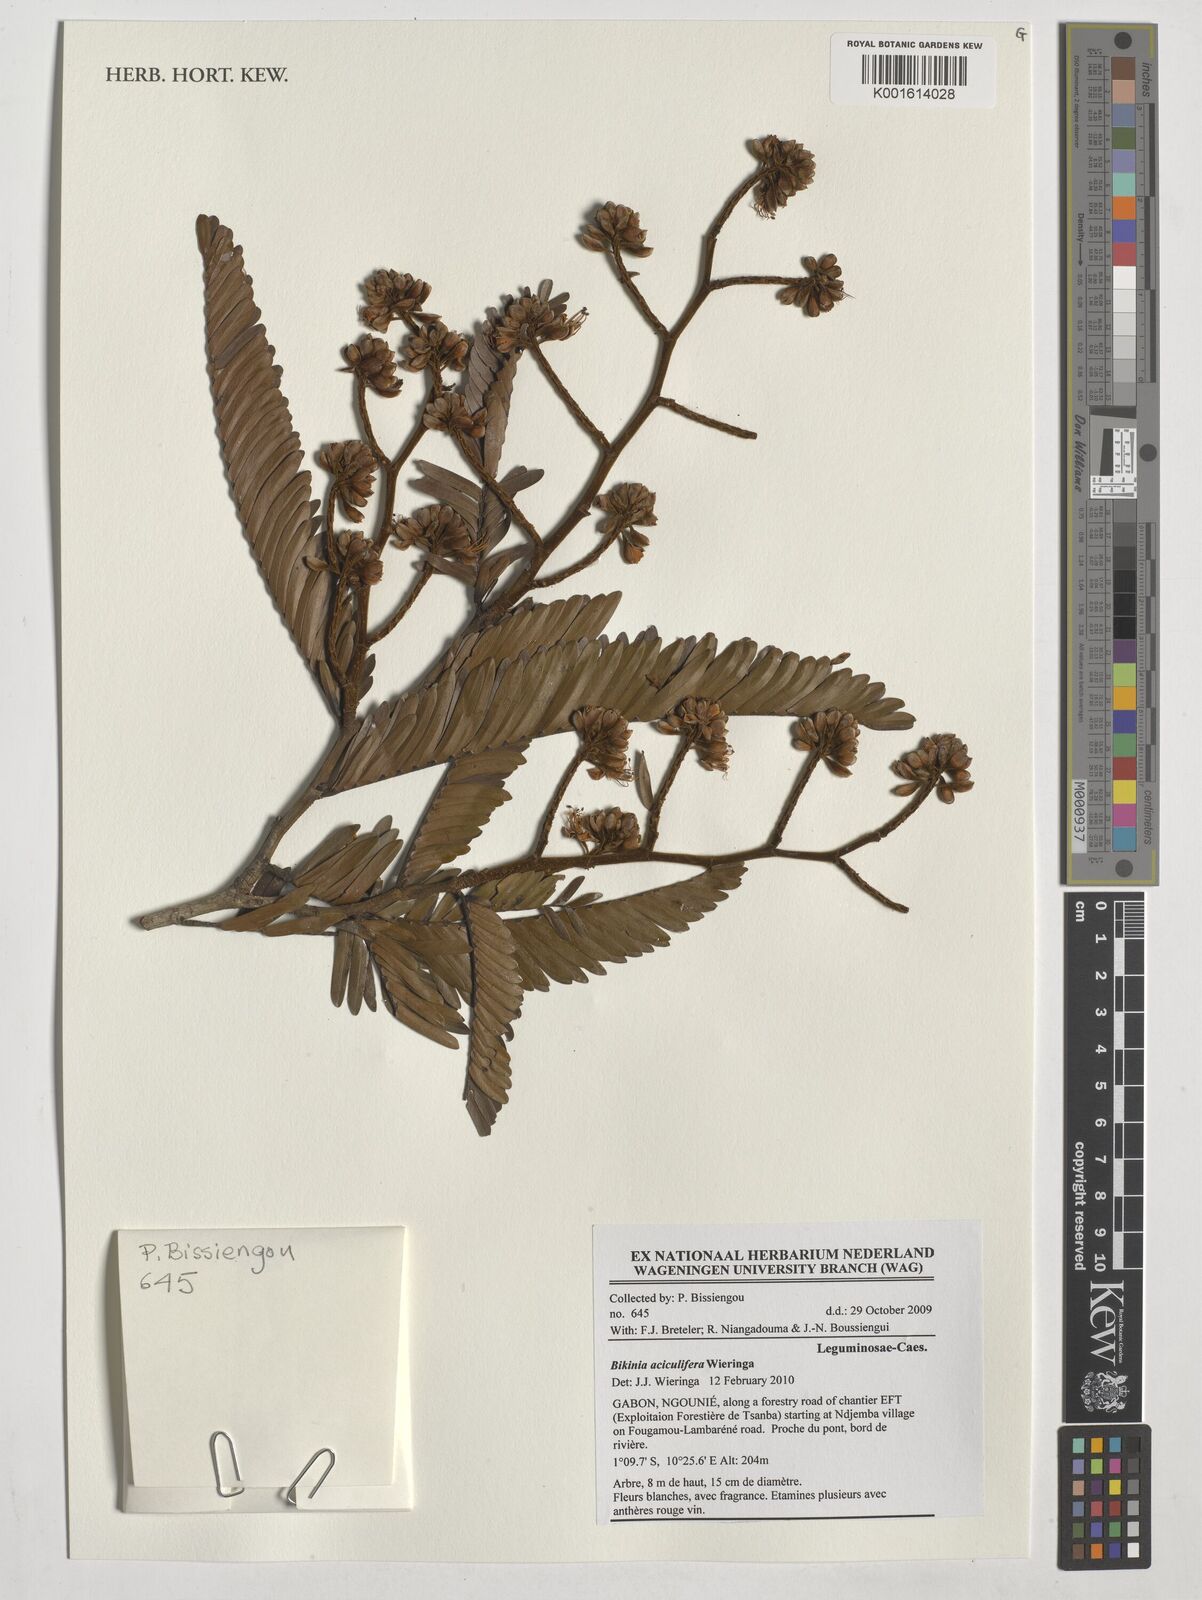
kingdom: Plantae
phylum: Tracheophyta
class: Magnoliopsida
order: Fabales
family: Fabaceae
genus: Bikinia
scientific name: Bikinia aciculifera
